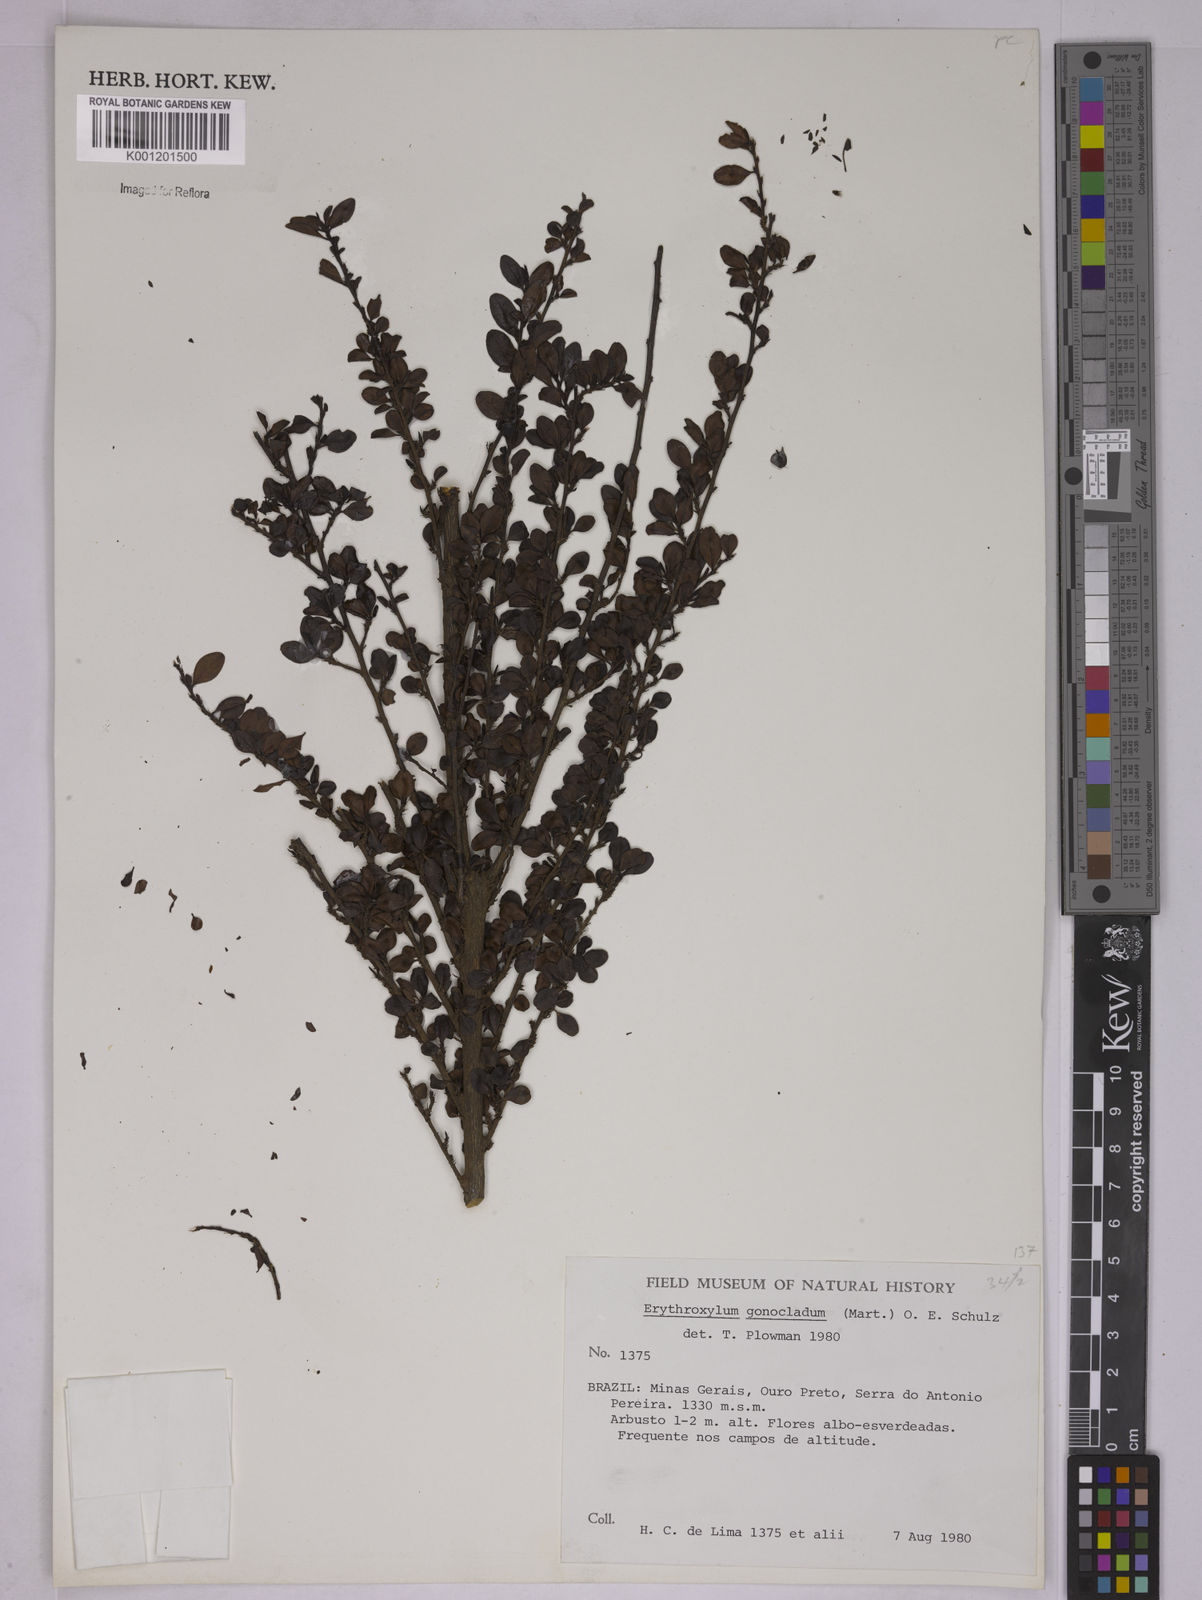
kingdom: Plantae
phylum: Tracheophyta
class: Magnoliopsida
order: Malpighiales
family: Erythroxylaceae
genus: Erythroxylum
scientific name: Erythroxylum
